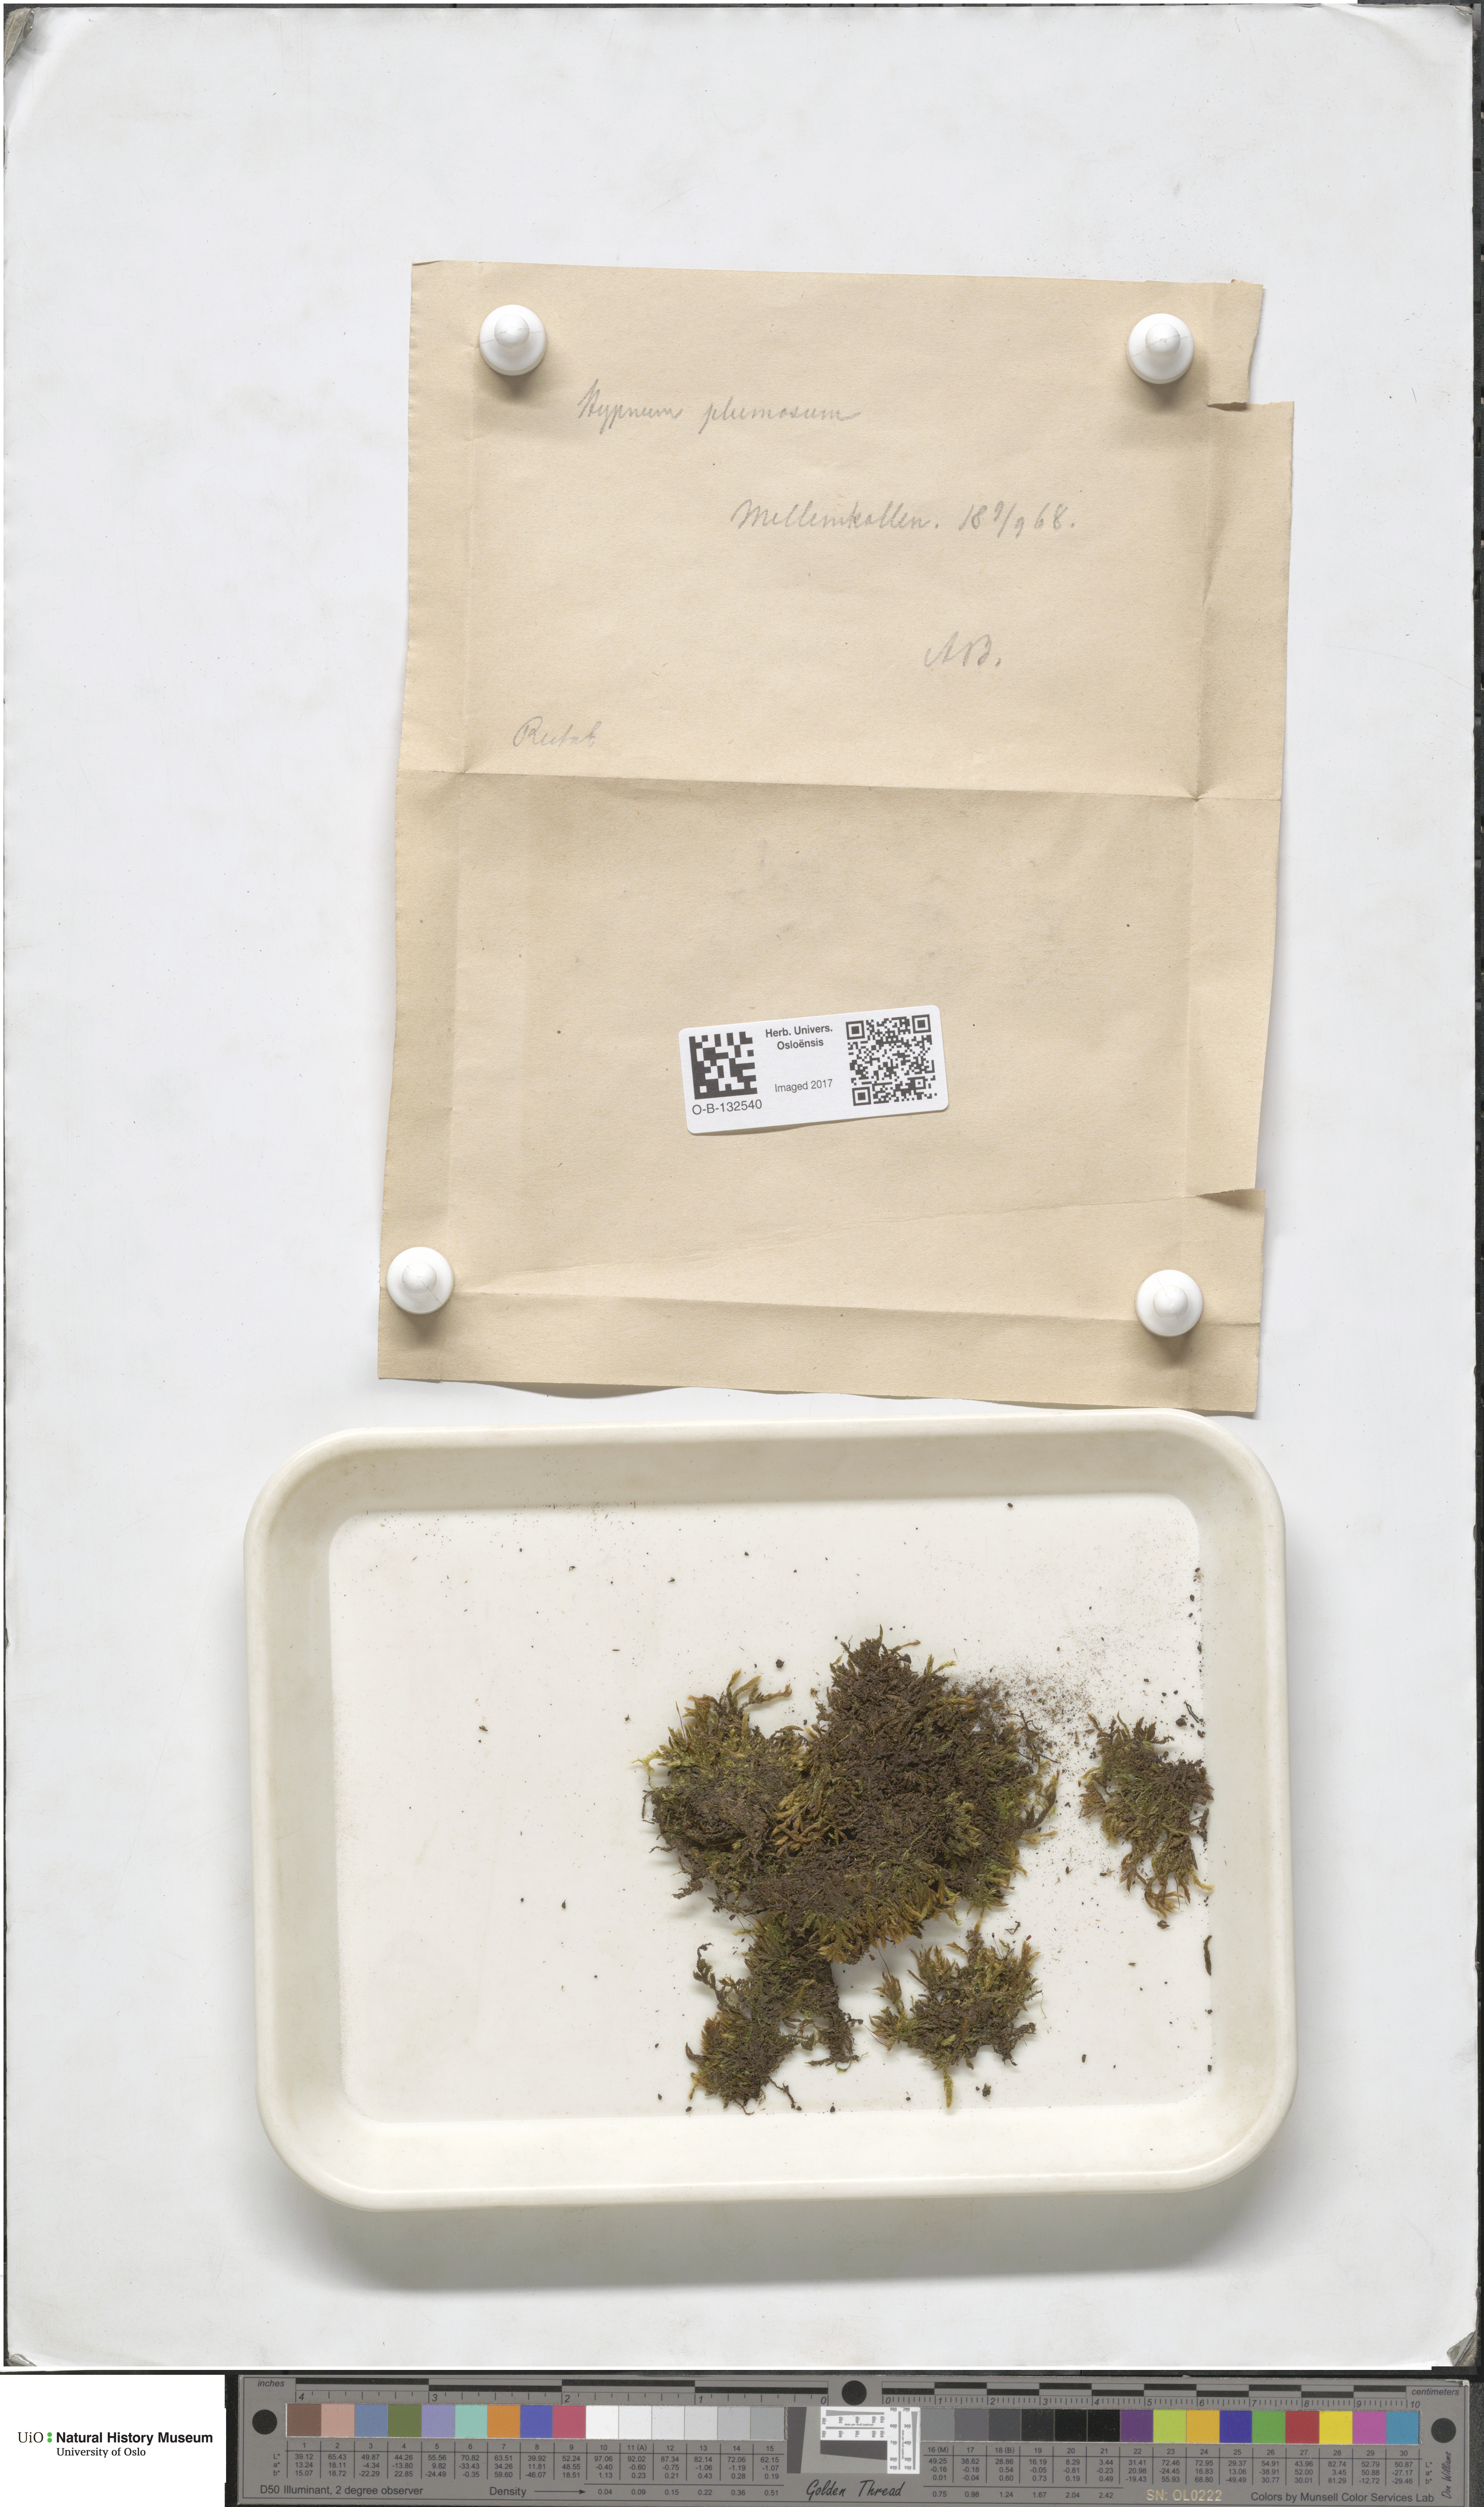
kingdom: Plantae
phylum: Bryophyta
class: Bryopsida
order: Hypnales
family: Brachytheciaceae
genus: Sciuro-hypnum
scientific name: Sciuro-hypnum plumosum
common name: Rusty feather-moss
